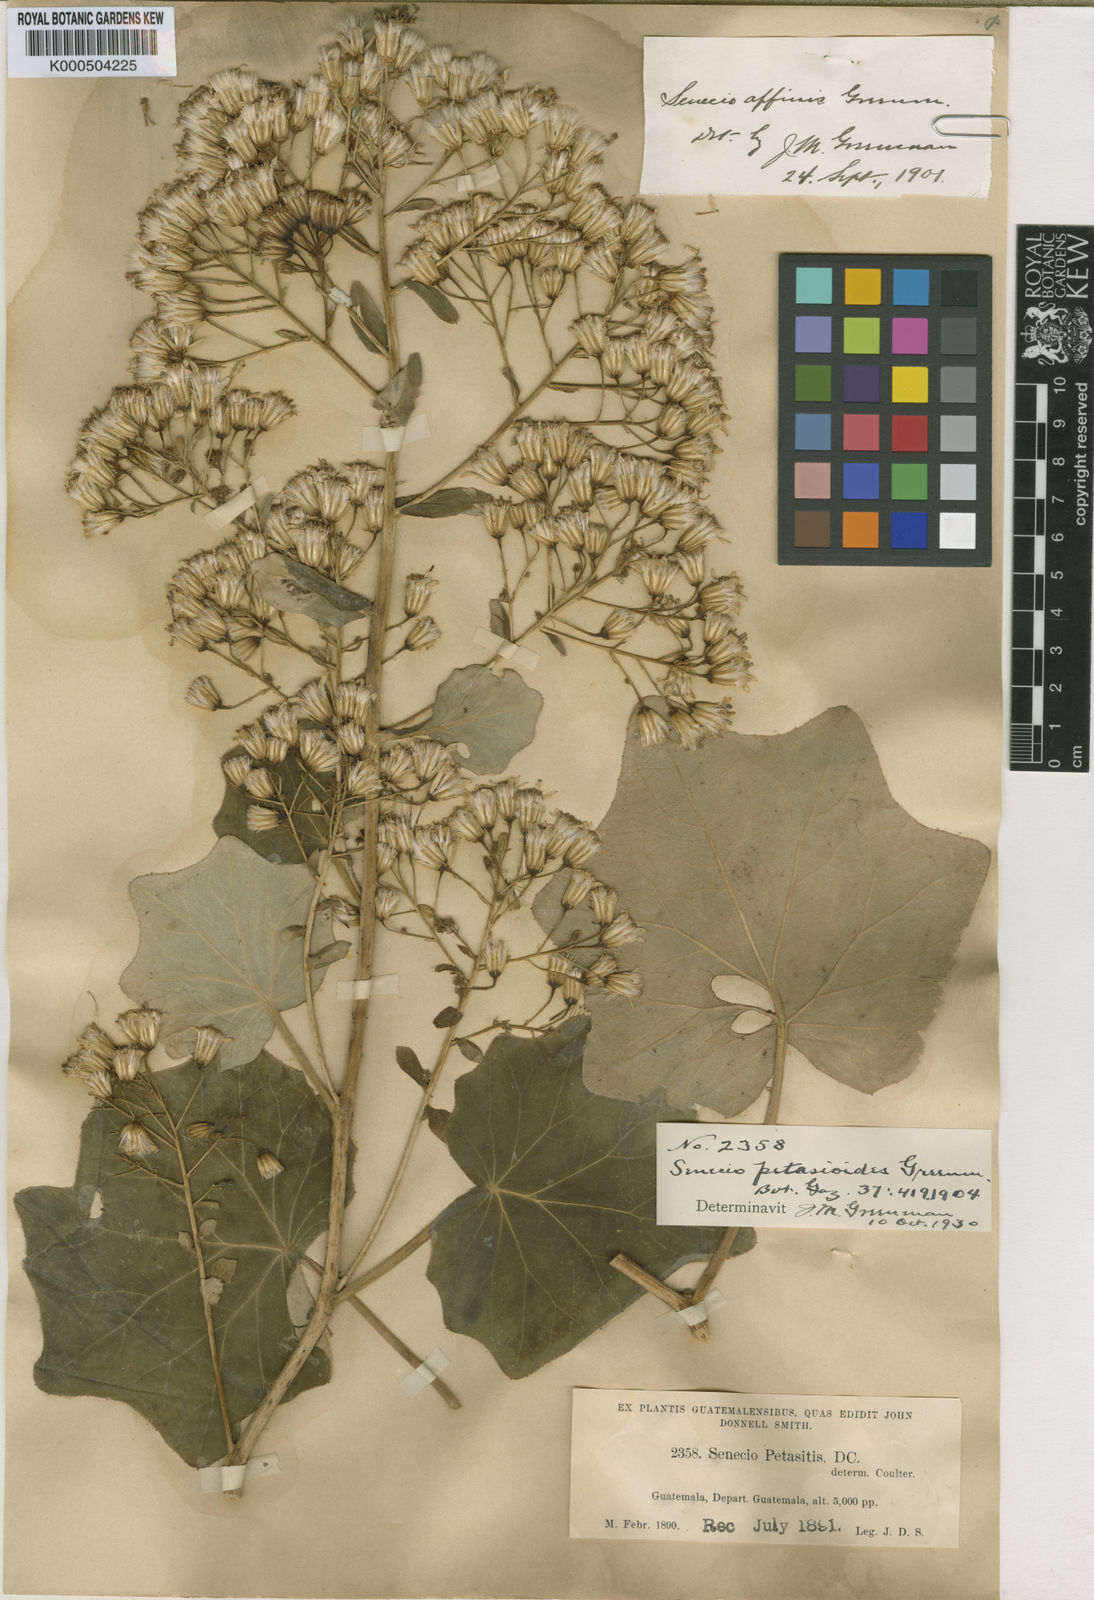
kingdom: Plantae
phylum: Tracheophyta
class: Magnoliopsida
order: Asterales
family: Asteraceae
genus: Roldana
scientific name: Roldana petasioides
